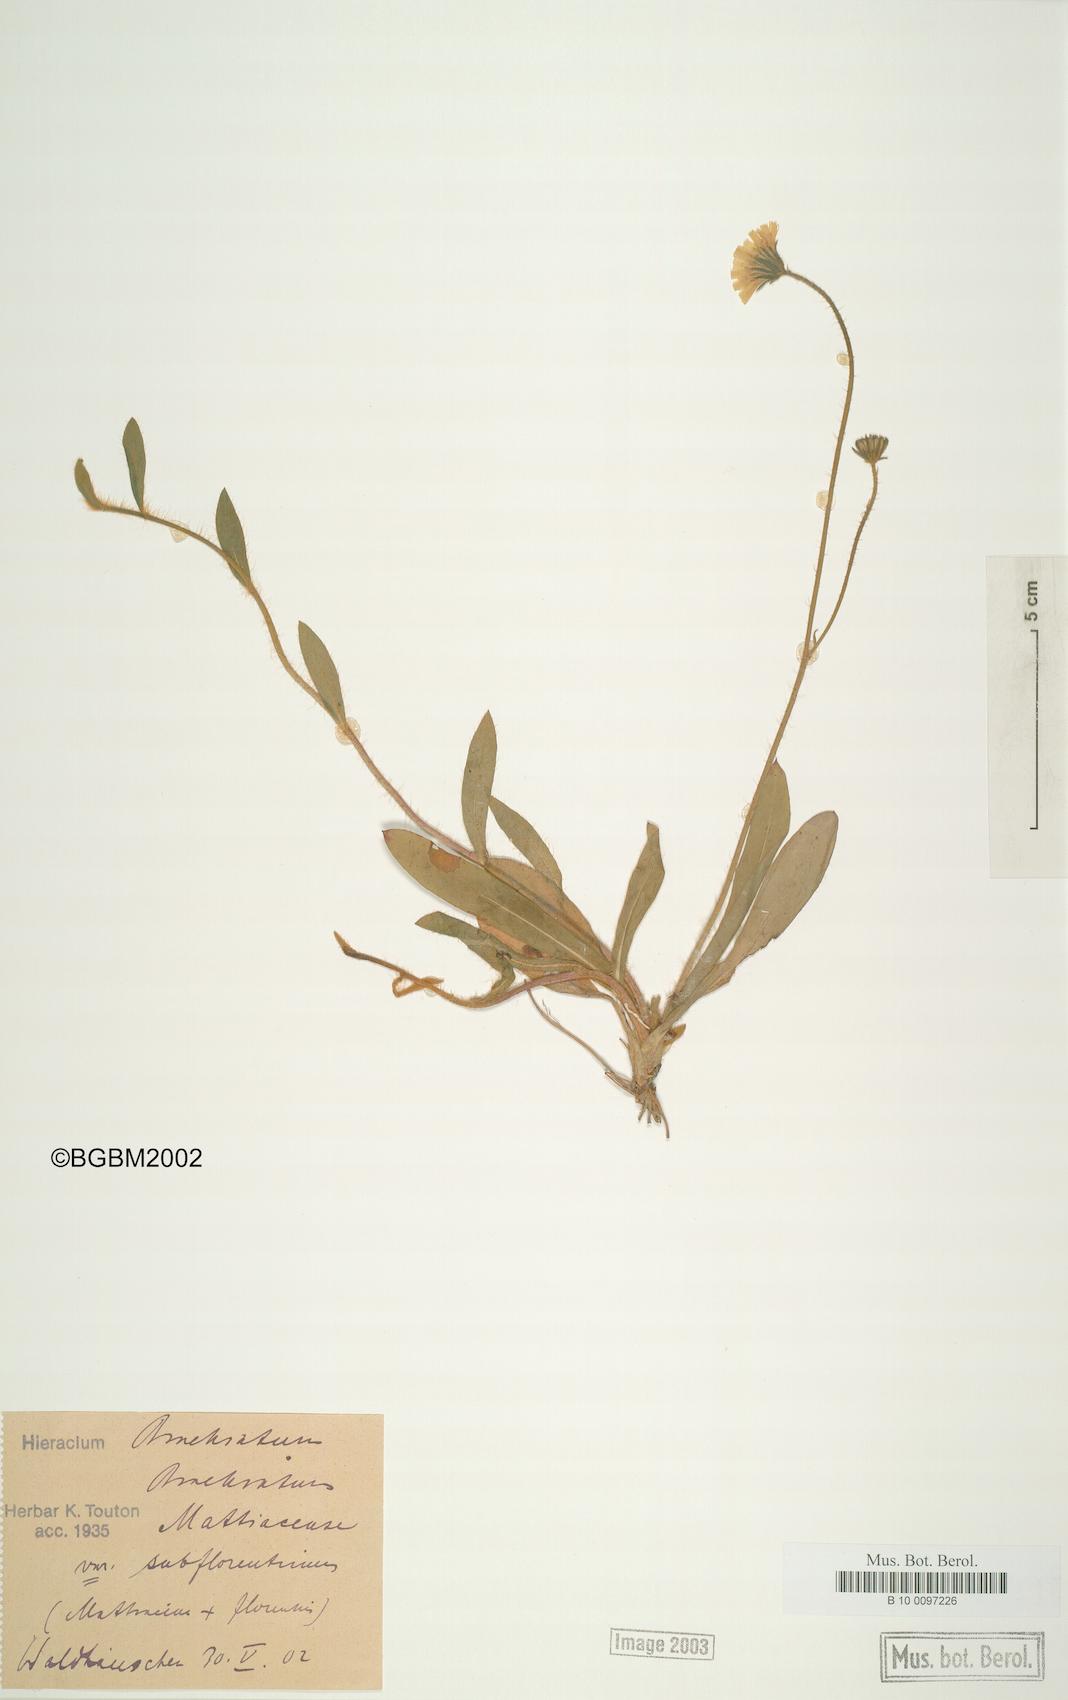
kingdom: Plantae
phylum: Tracheophyta
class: Magnoliopsida
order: Asterales
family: Asteraceae
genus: Pilosella
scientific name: Pilosella acutifolia
